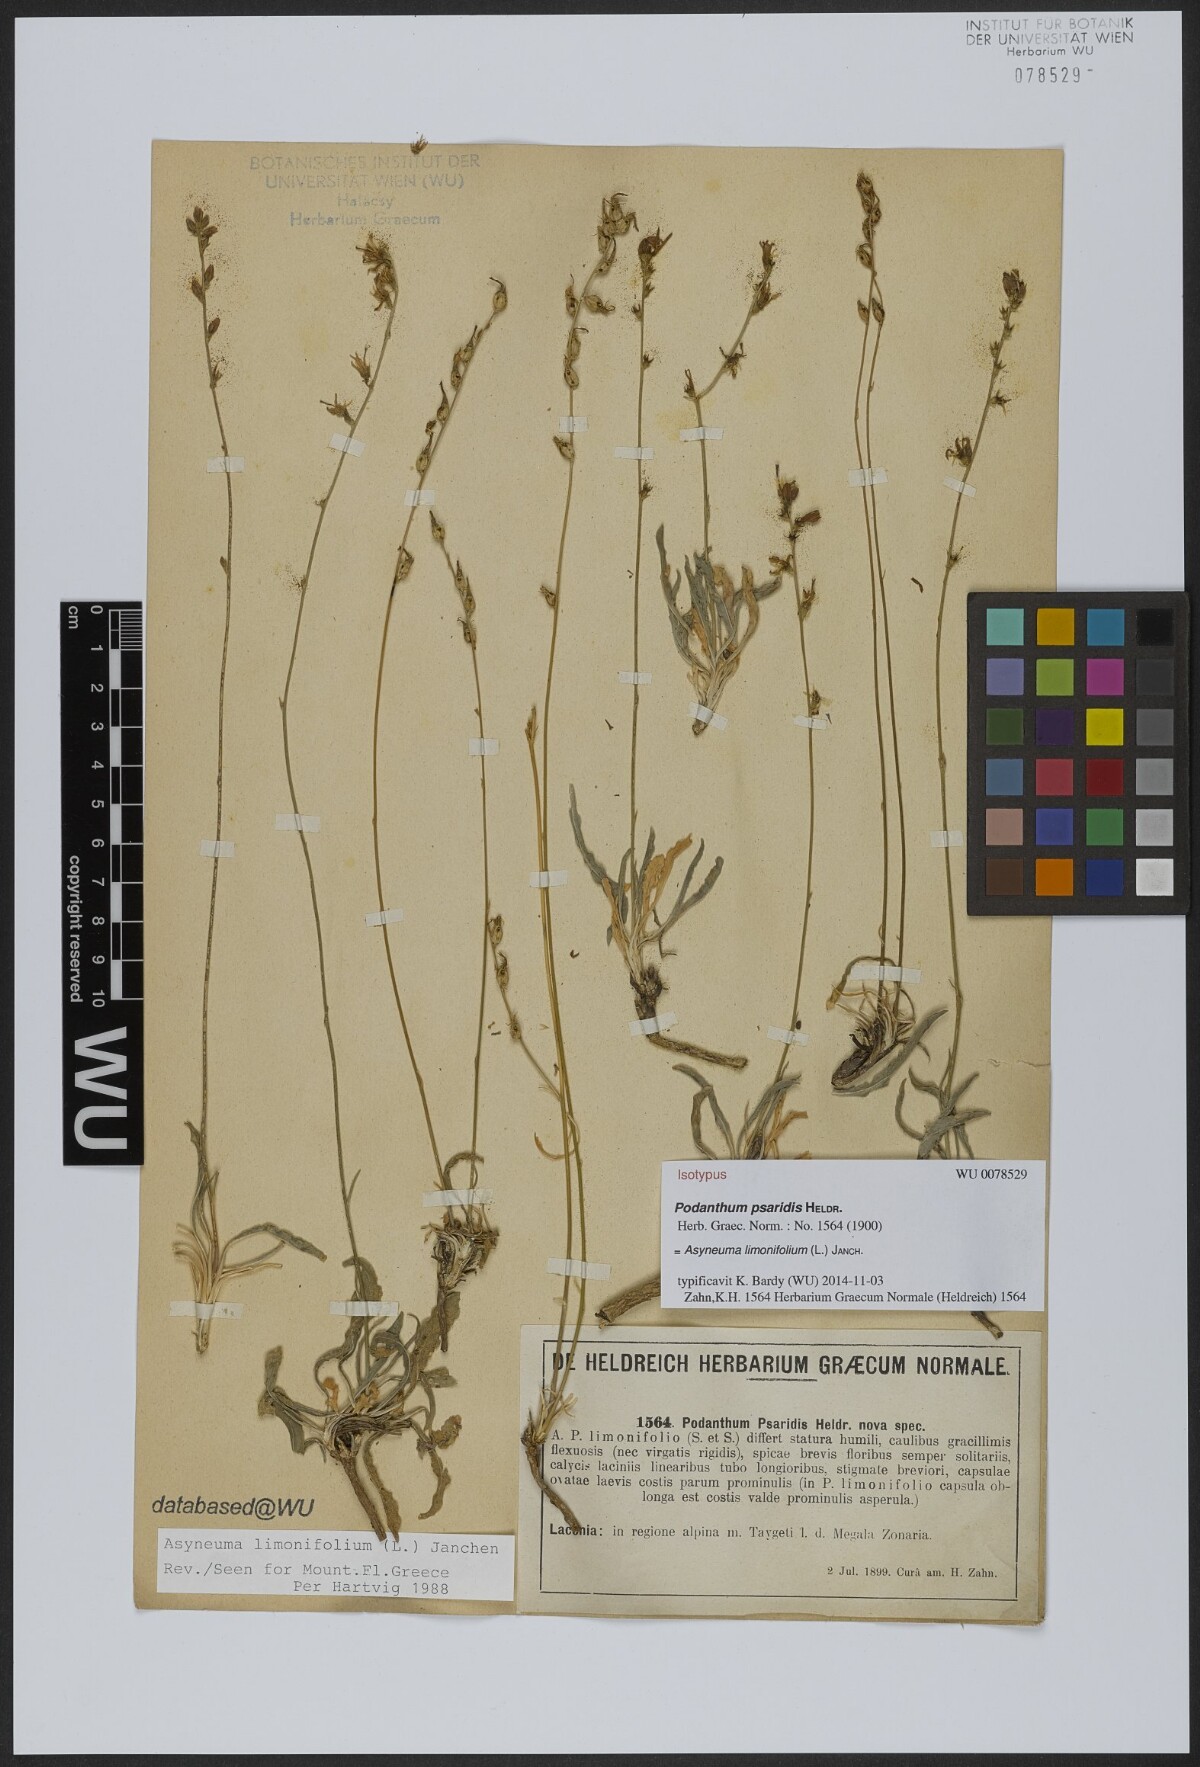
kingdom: Plantae
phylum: Tracheophyta
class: Magnoliopsida
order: Asterales
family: Campanulaceae
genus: Asyneuma
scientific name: Asyneuma limonifolium
